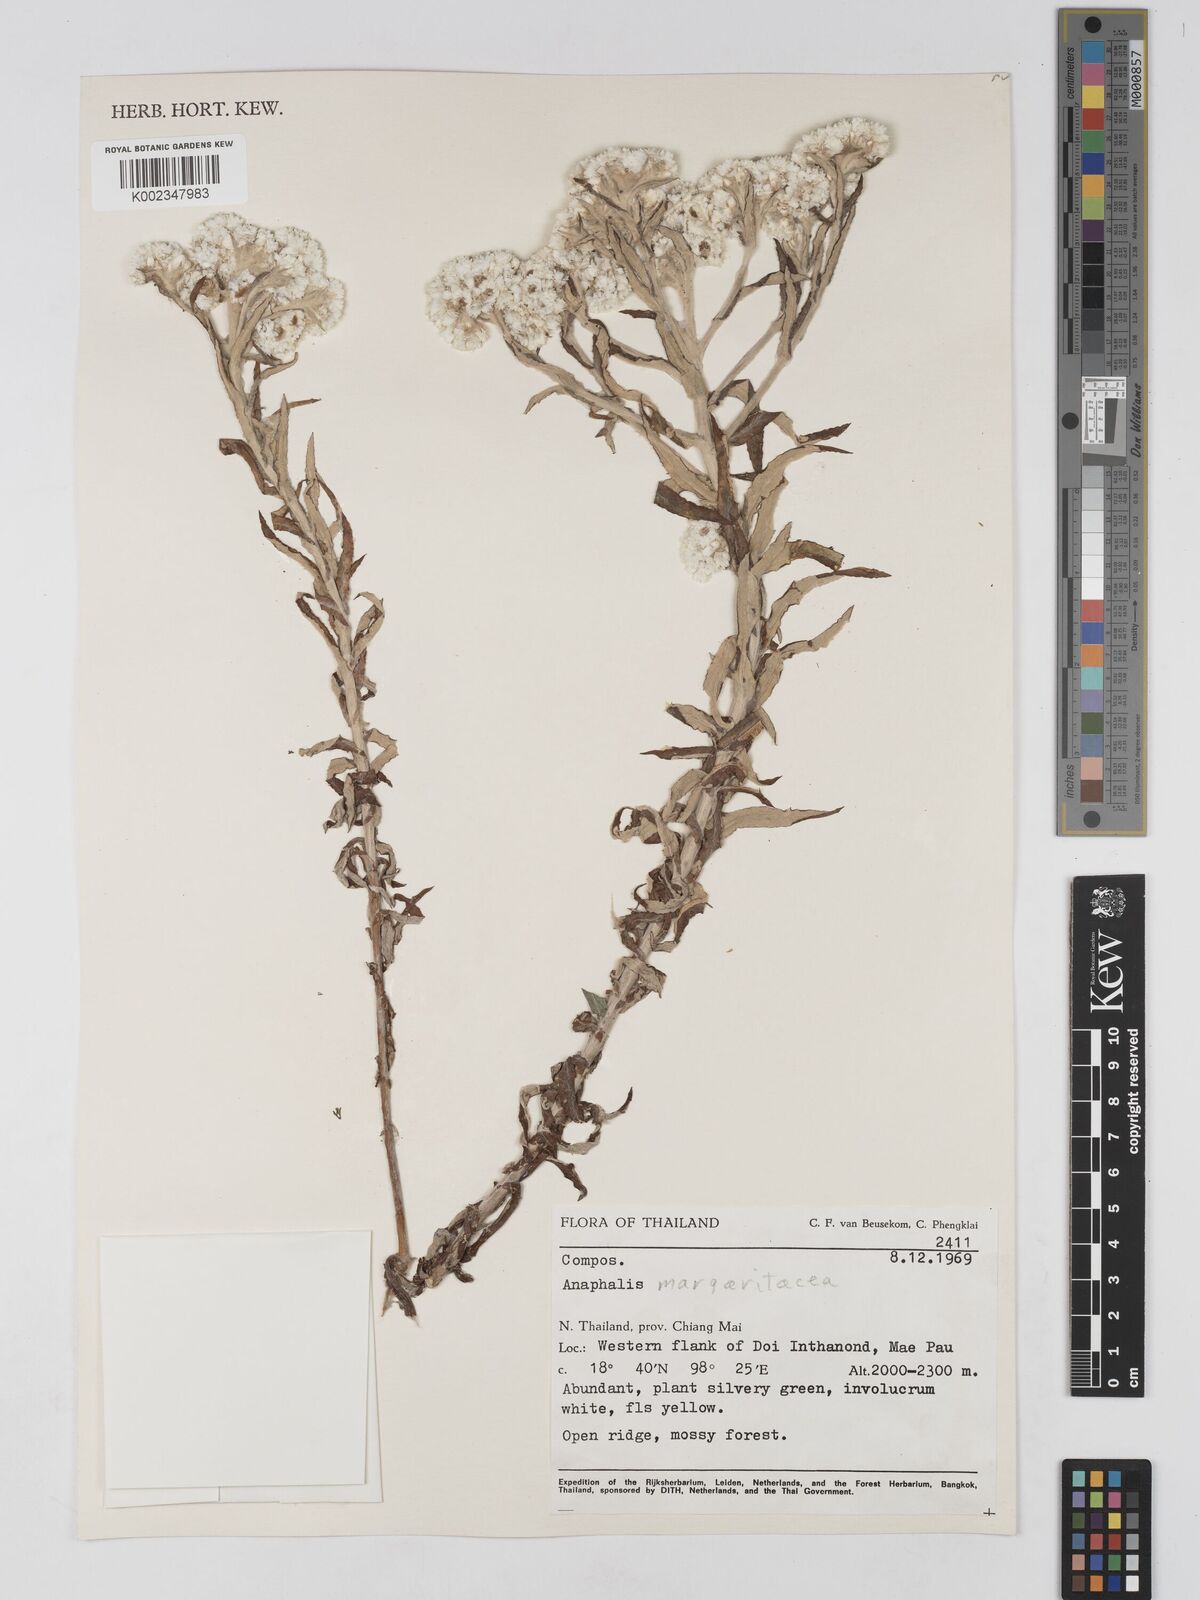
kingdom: Plantae
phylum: Tracheophyta
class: Magnoliopsida
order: Asterales
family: Asteraceae
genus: Anaphalis
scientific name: Anaphalis margaritacea
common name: Pearly everlasting
